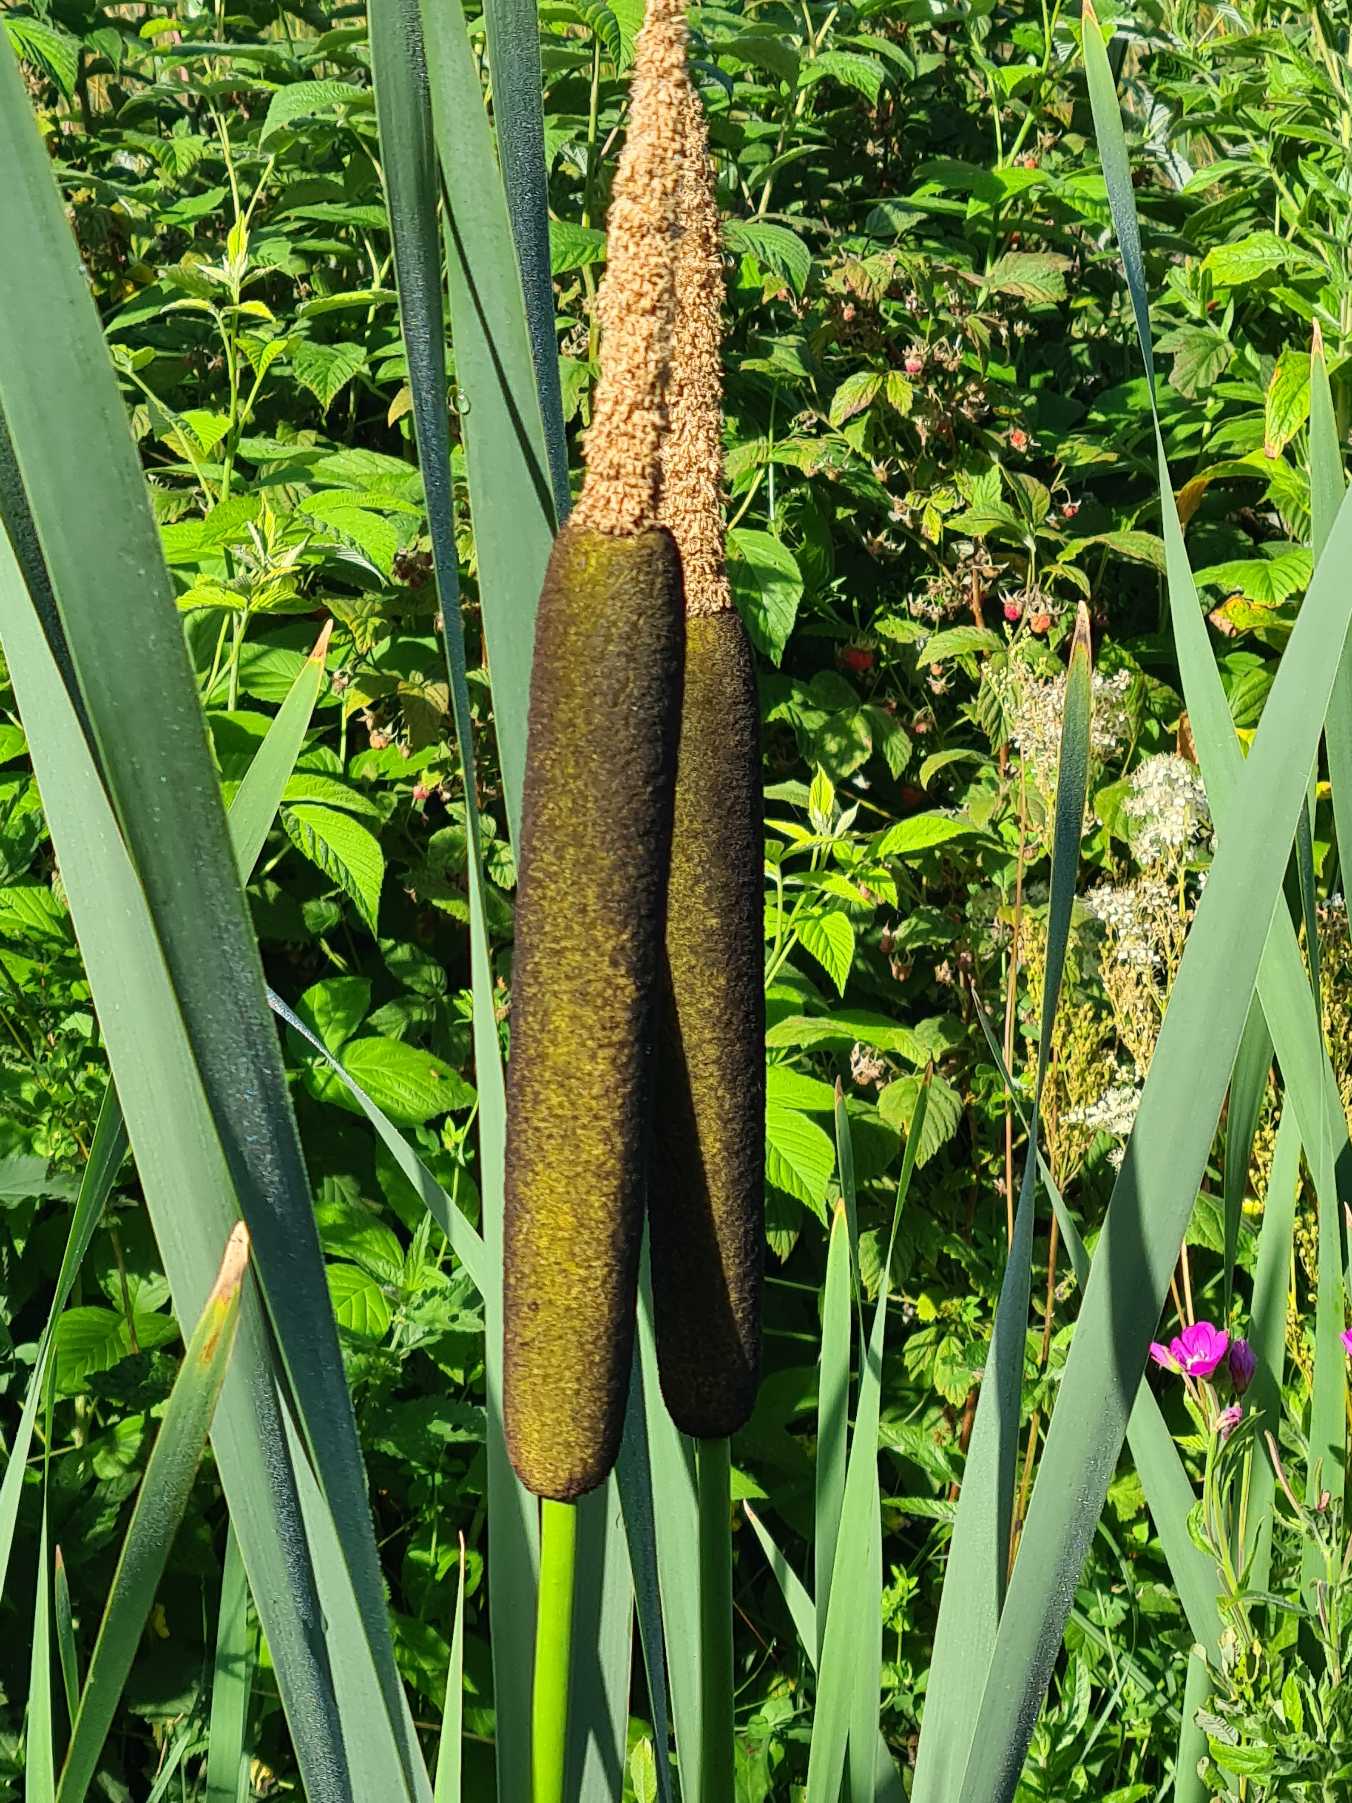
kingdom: Plantae
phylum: Tracheophyta
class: Liliopsida
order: Poales
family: Typhaceae
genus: Typha
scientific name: Typha latifolia
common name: Bredbladet dunhammer
